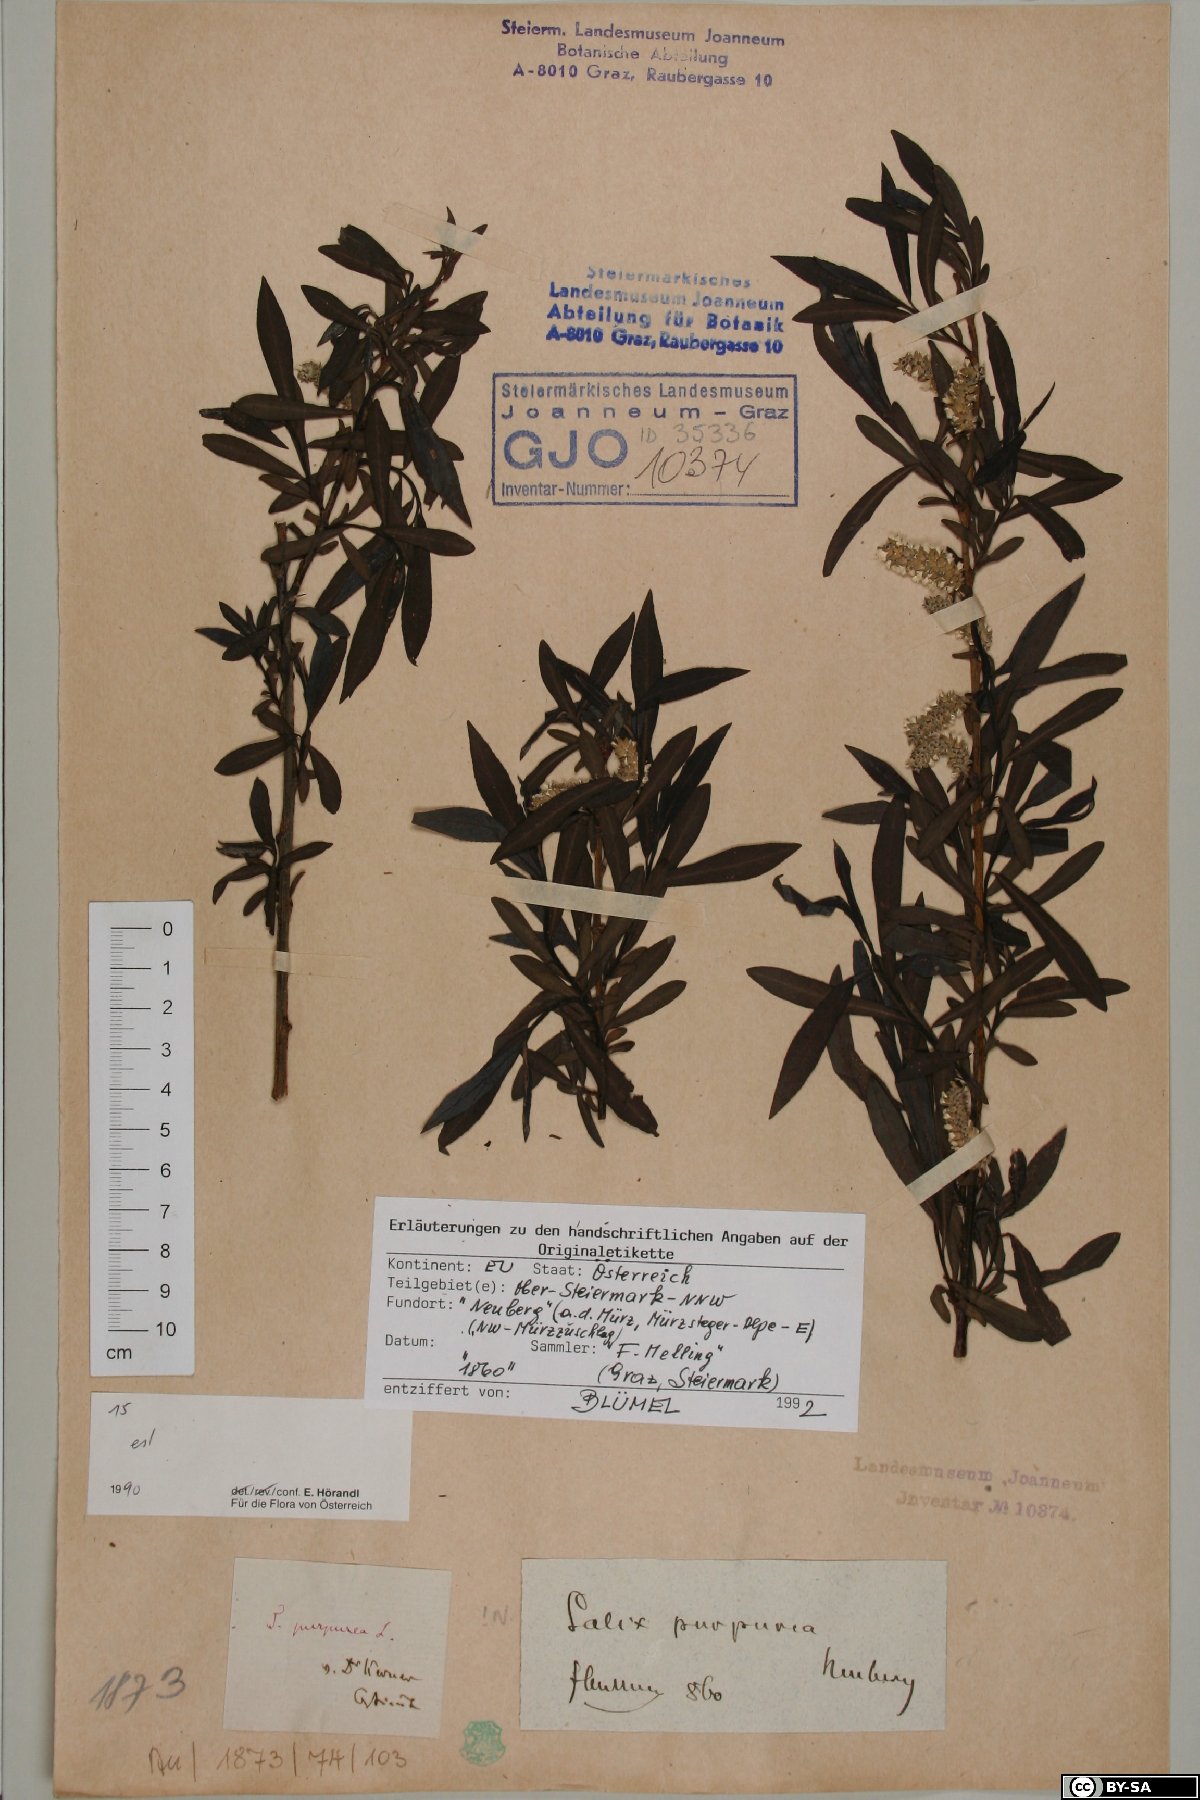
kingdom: Plantae
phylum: Tracheophyta
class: Magnoliopsida
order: Malpighiales
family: Salicaceae
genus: Salix
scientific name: Salix purpurea
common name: Purple willow
